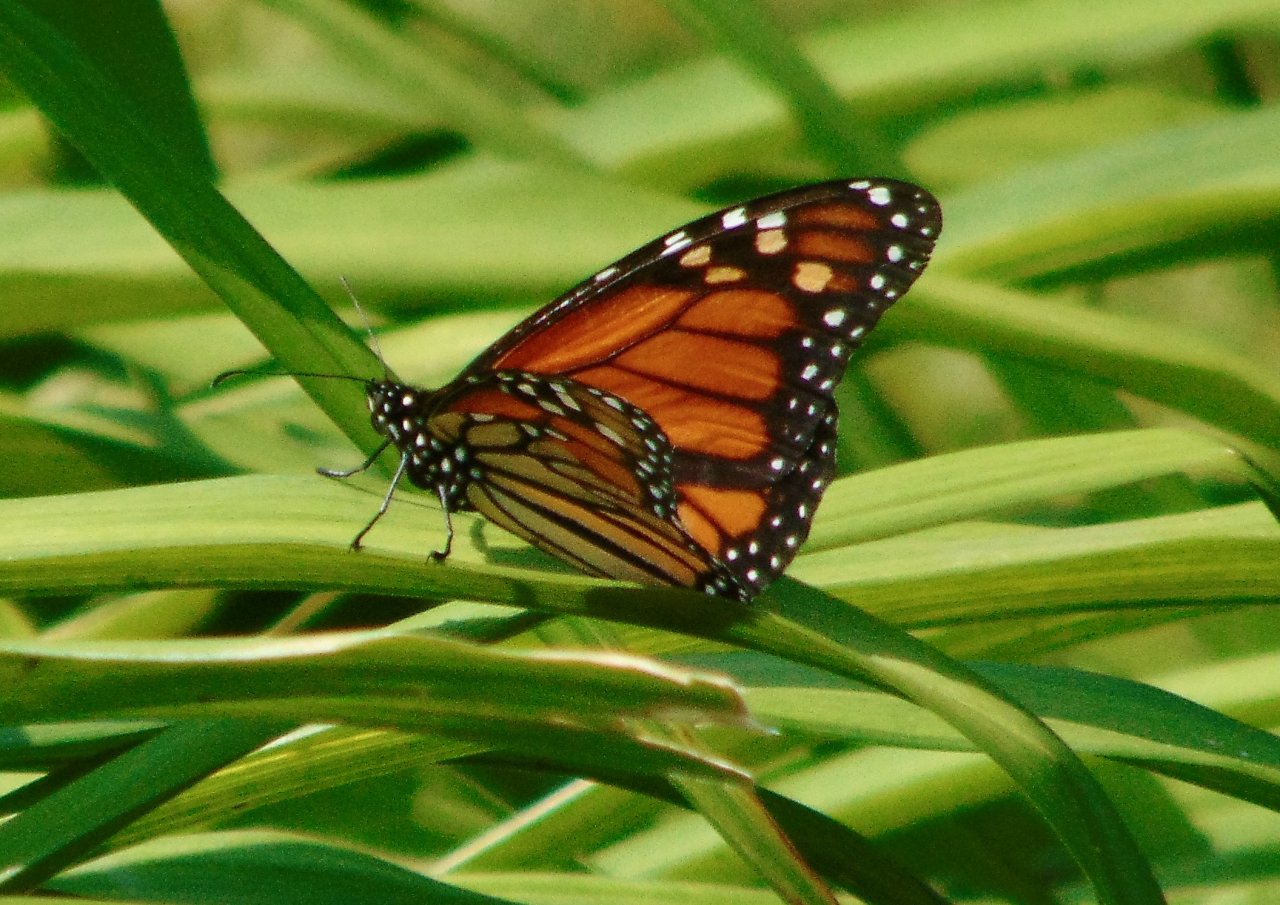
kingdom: Animalia
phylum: Arthropoda
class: Insecta
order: Lepidoptera
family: Nymphalidae
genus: Danaus
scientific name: Danaus plexippus
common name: Monarch
